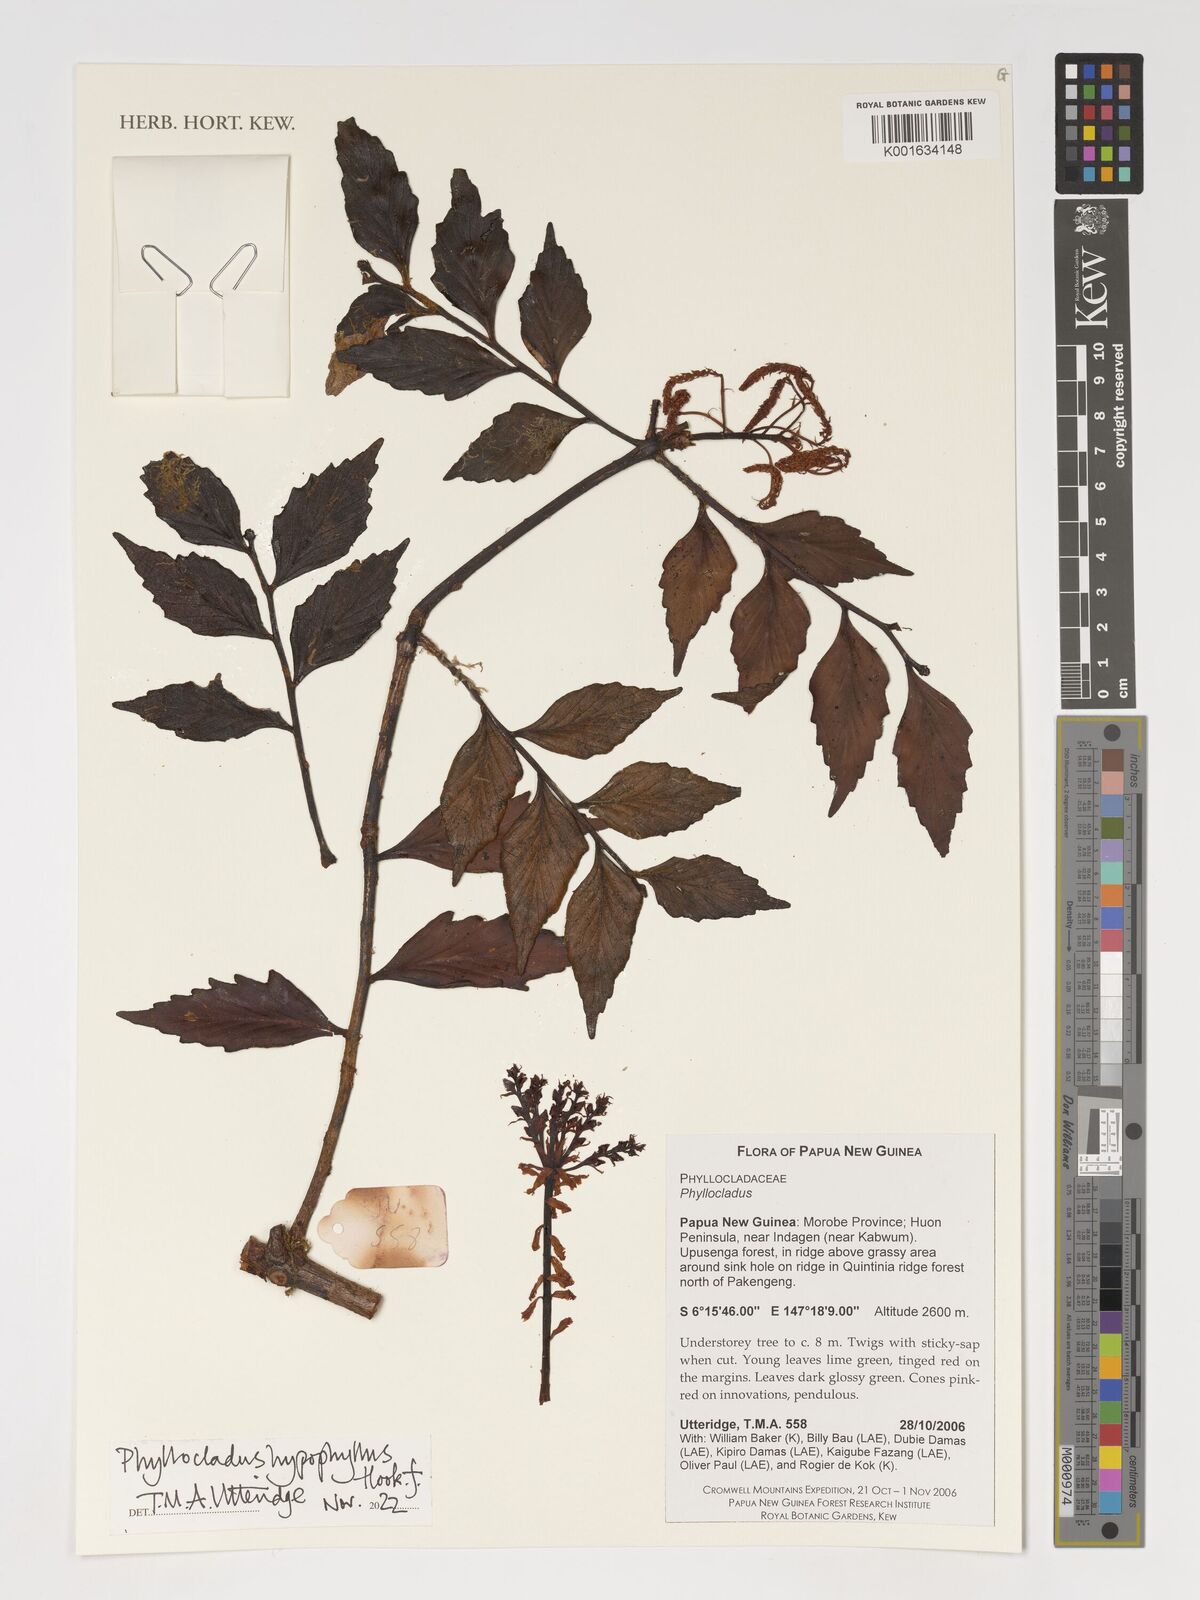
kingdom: Plantae
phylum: Tracheophyta
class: Pinopsida
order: Pinales
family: Phyllocladaceae
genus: Phyllocladus
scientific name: Phyllocladus hypophyllus
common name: Celery pine
